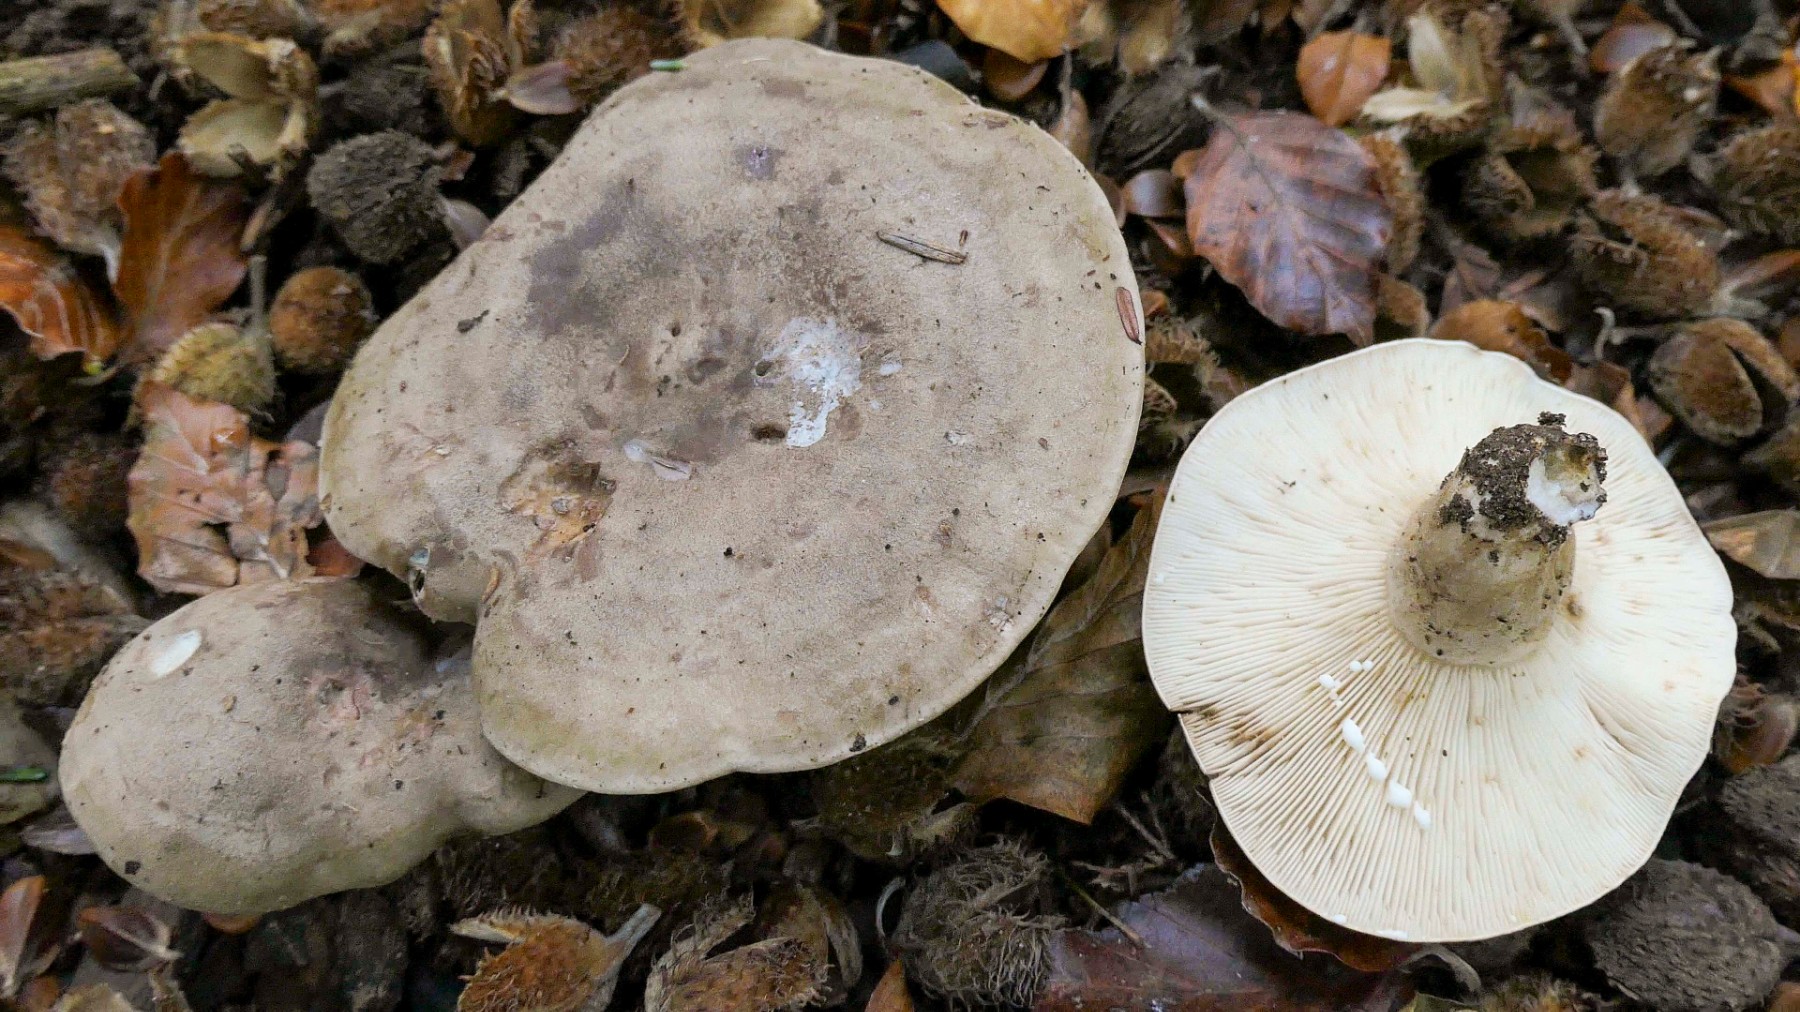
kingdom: Fungi
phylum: Basidiomycota
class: Agaricomycetes
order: Russulales
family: Russulaceae
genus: Lactarius
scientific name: Lactarius fluens
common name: lysrandet mælkehat
